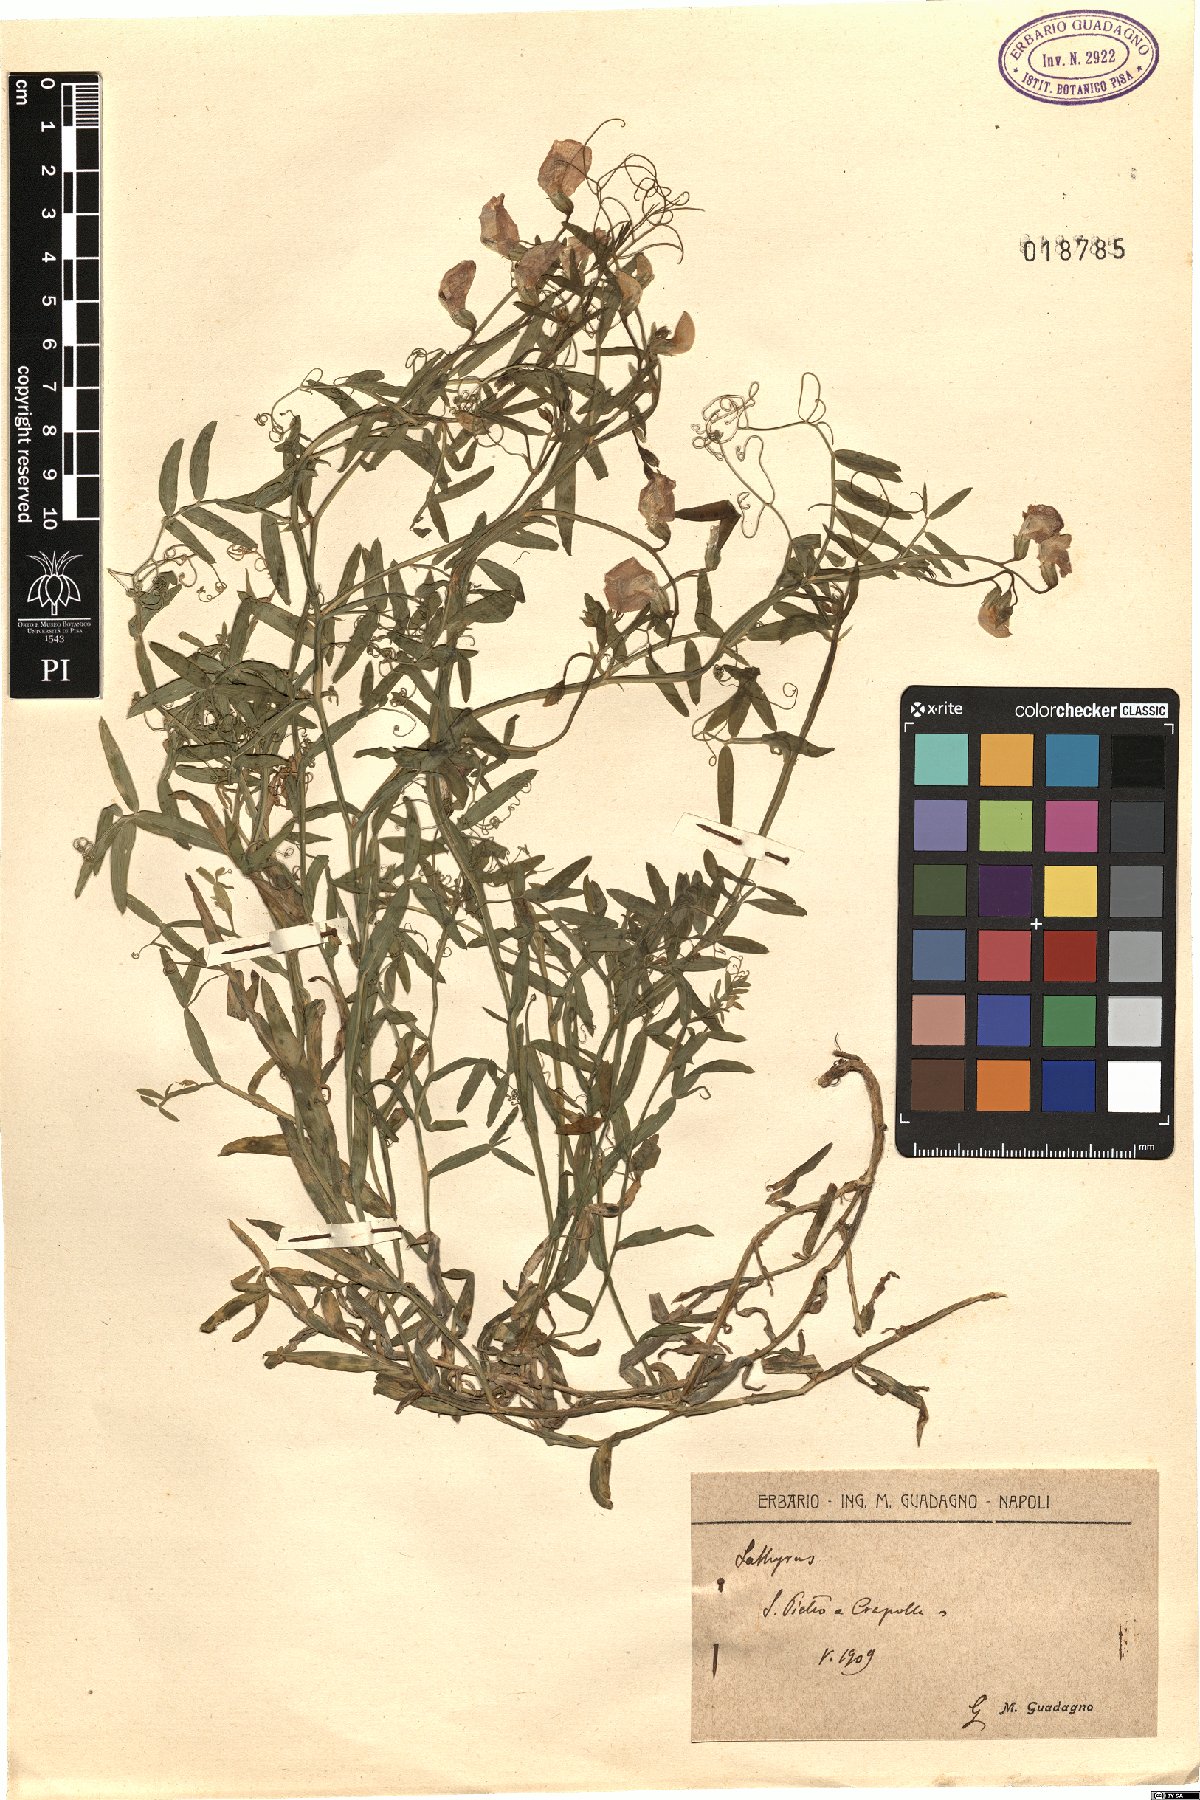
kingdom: Plantae
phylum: Tracheophyta
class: Magnoliopsida
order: Fabales
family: Fabaceae
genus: Lathyrus
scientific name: Lathyrus
